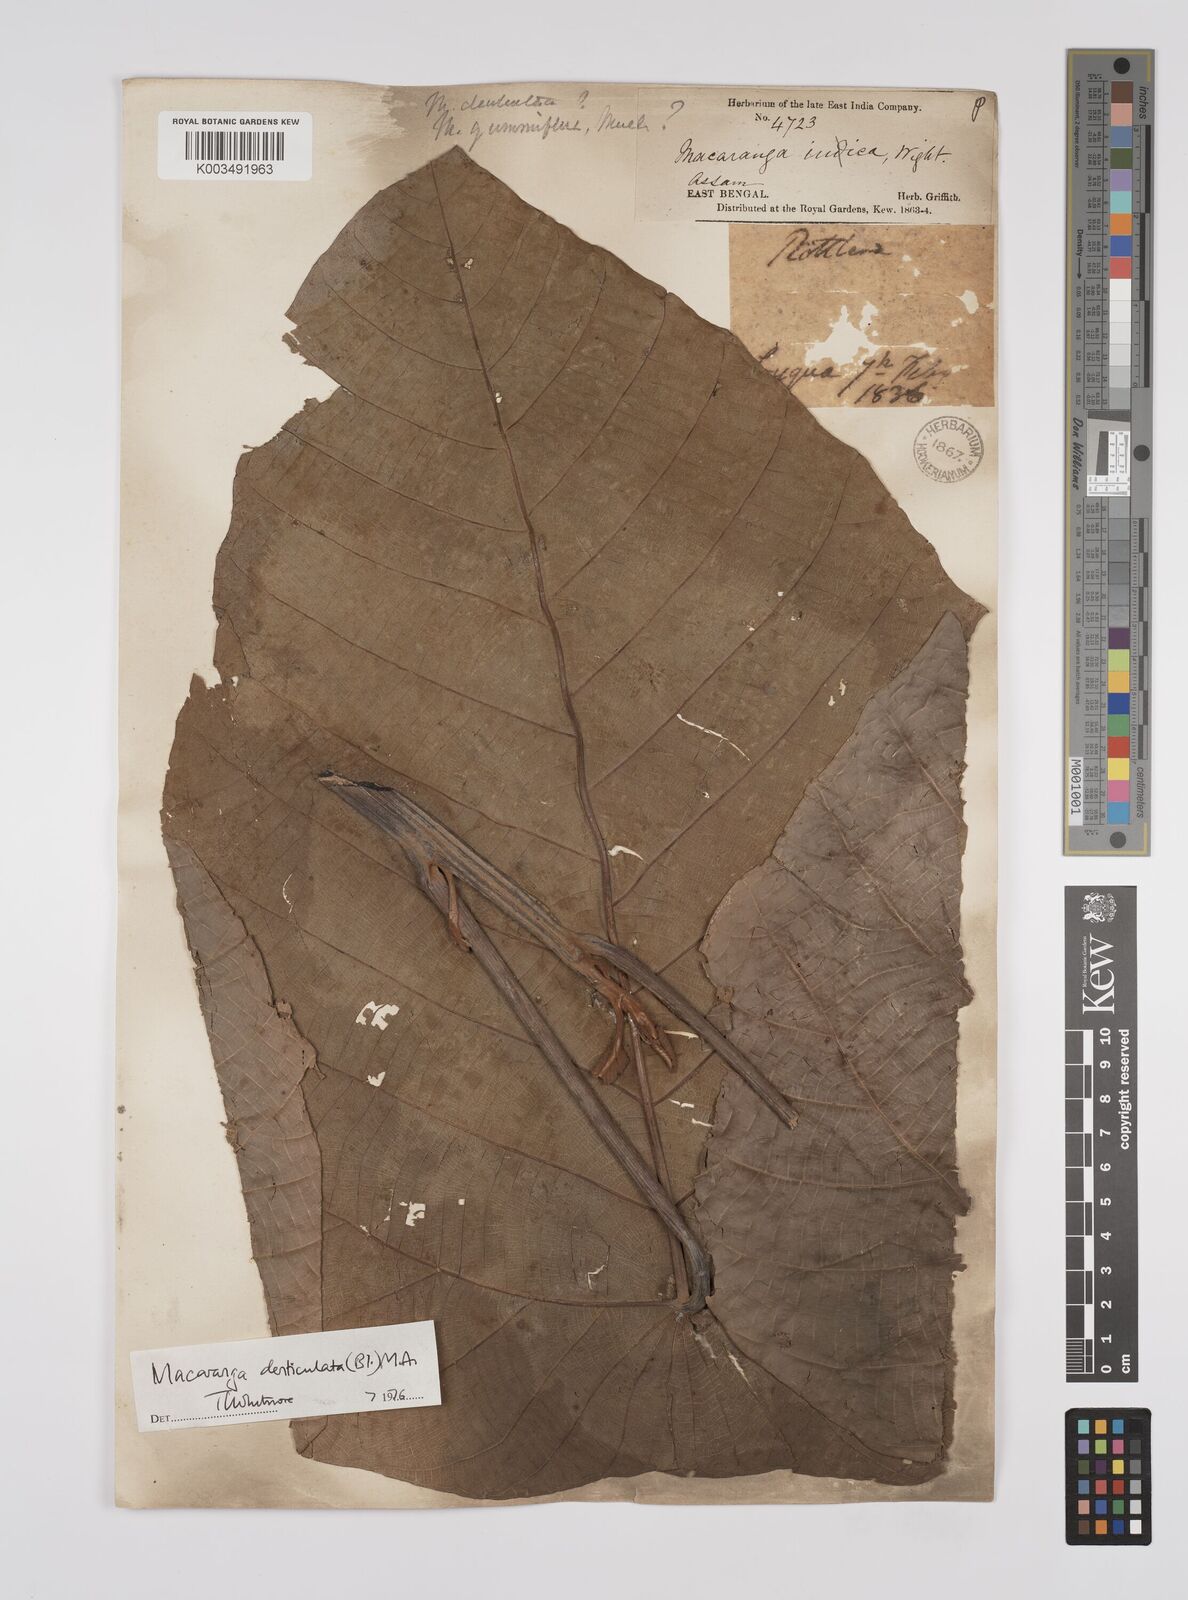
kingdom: Plantae
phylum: Tracheophyta
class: Magnoliopsida
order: Malpighiales
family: Euphorbiaceae
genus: Macaranga
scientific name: Macaranga
